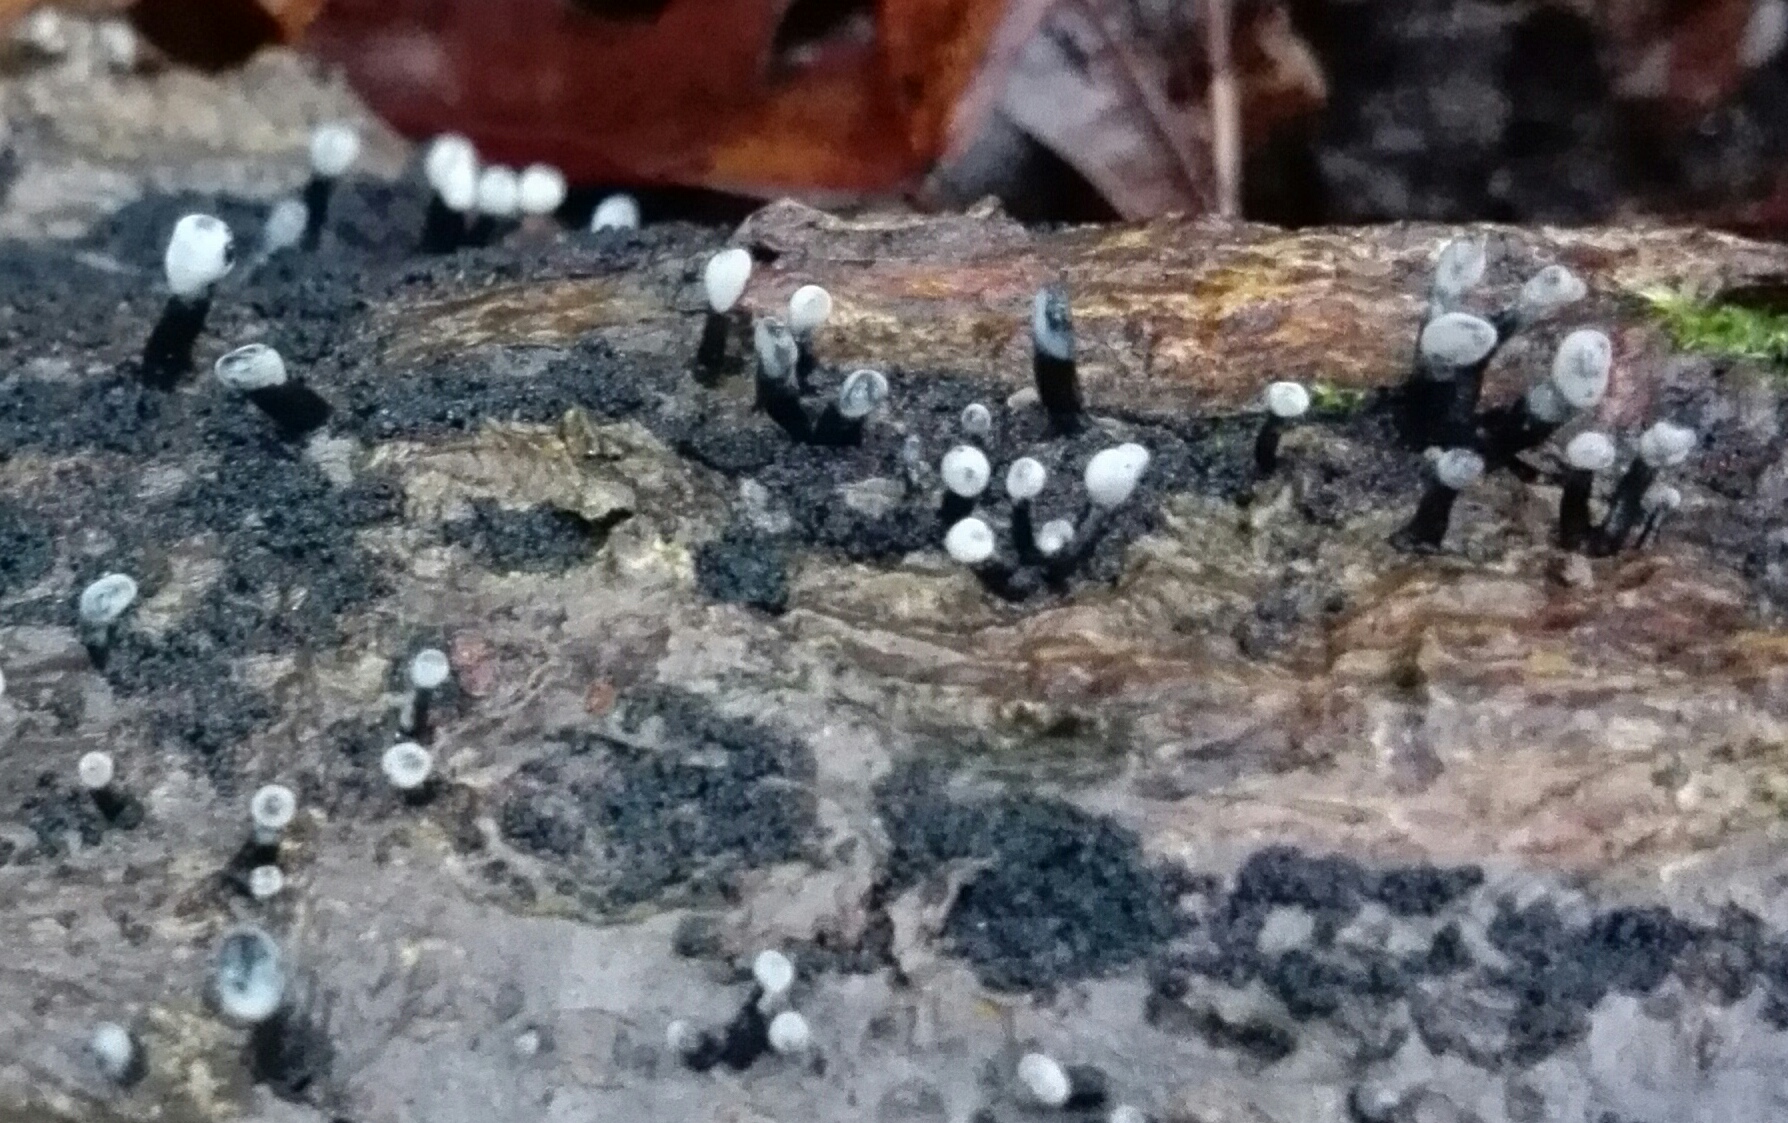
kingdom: Fungi
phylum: Ascomycota
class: Leotiomycetes
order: Helotiales
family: Bulgariaceae
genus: Holwaya
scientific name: Holwaya mucida
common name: lindeskive
